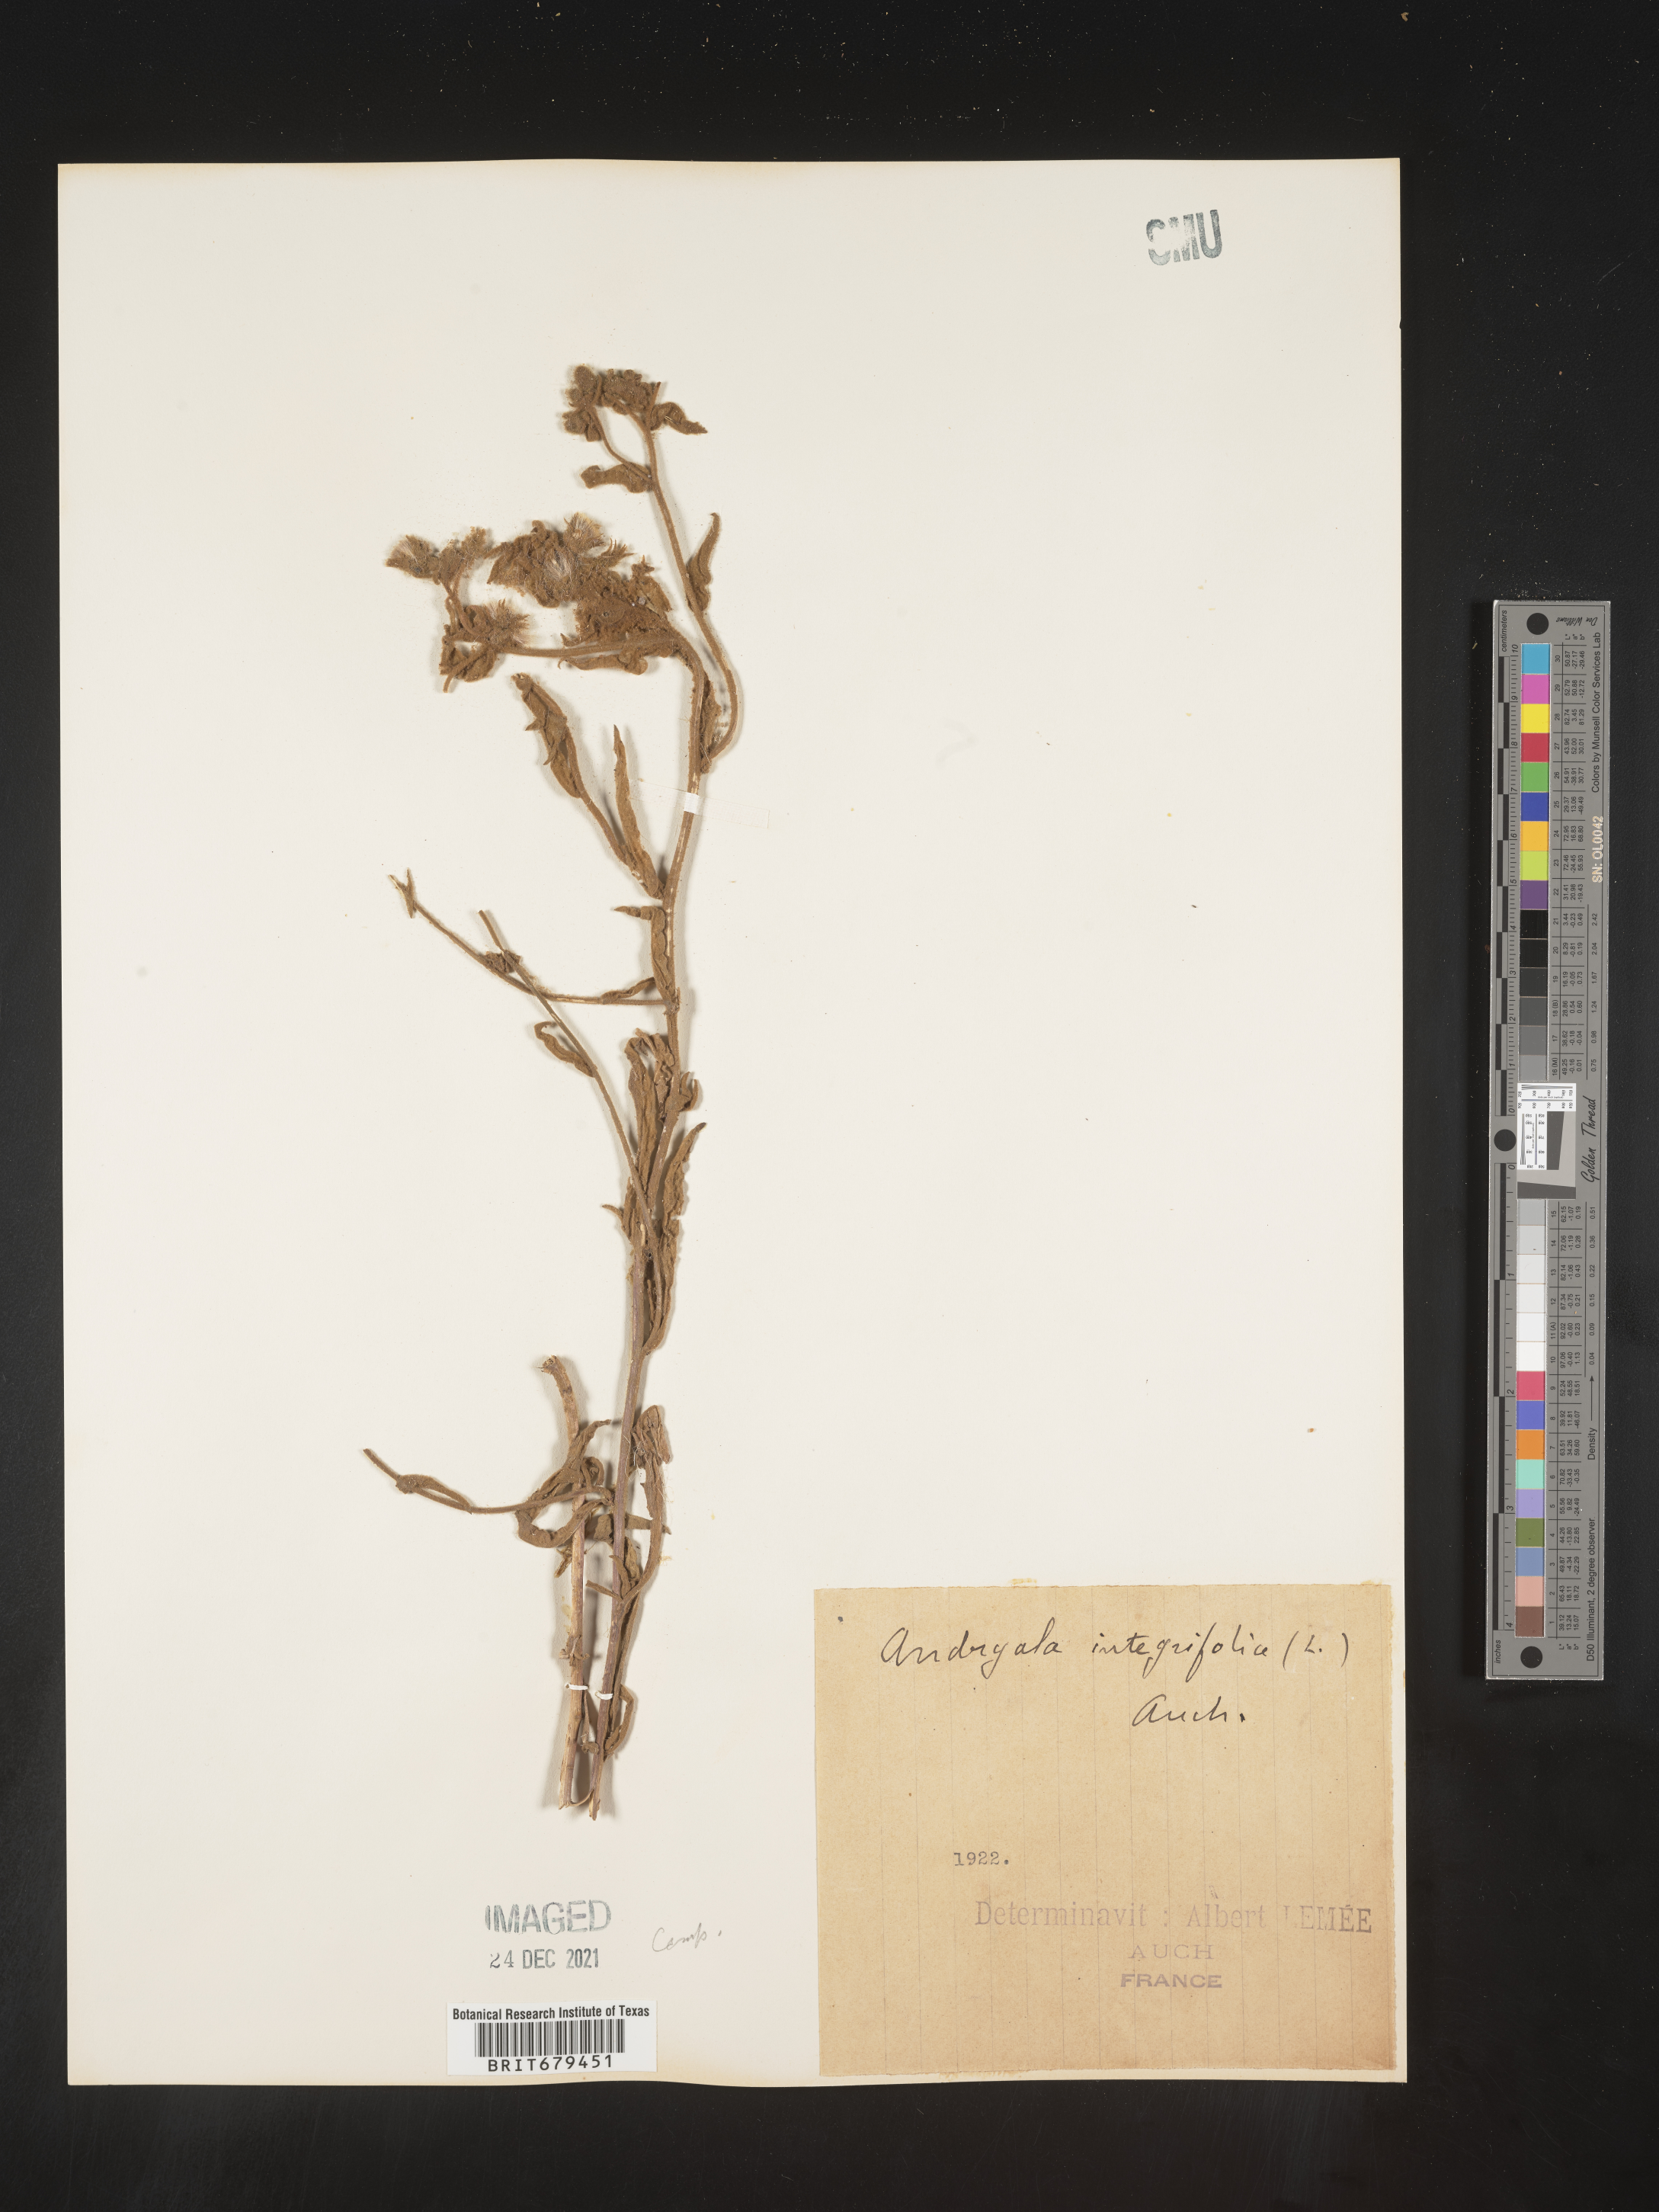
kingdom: Plantae
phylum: Tracheophyta
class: Magnoliopsida
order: Asterales
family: Asteraceae
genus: Andryala
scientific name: Andryala
